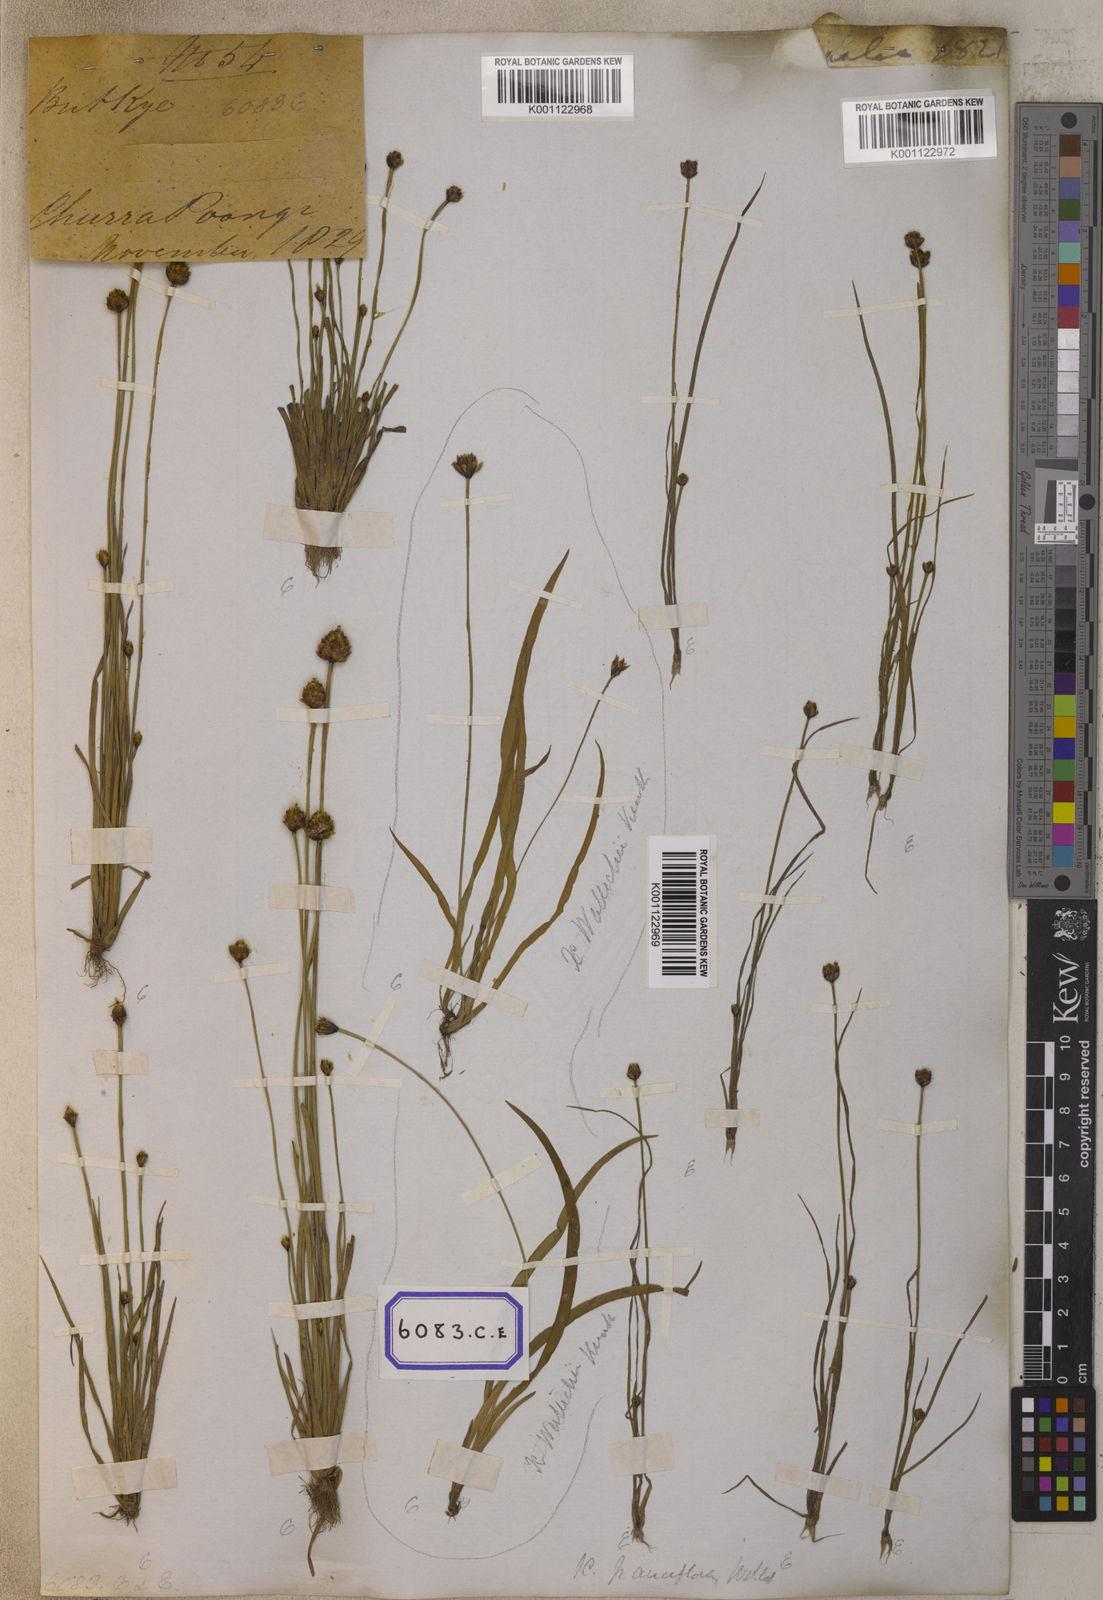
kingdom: Plantae
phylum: Tracheophyta
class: Liliopsida
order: Poales
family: Xyridaceae
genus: Xyris
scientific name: Xyris pauciflora
